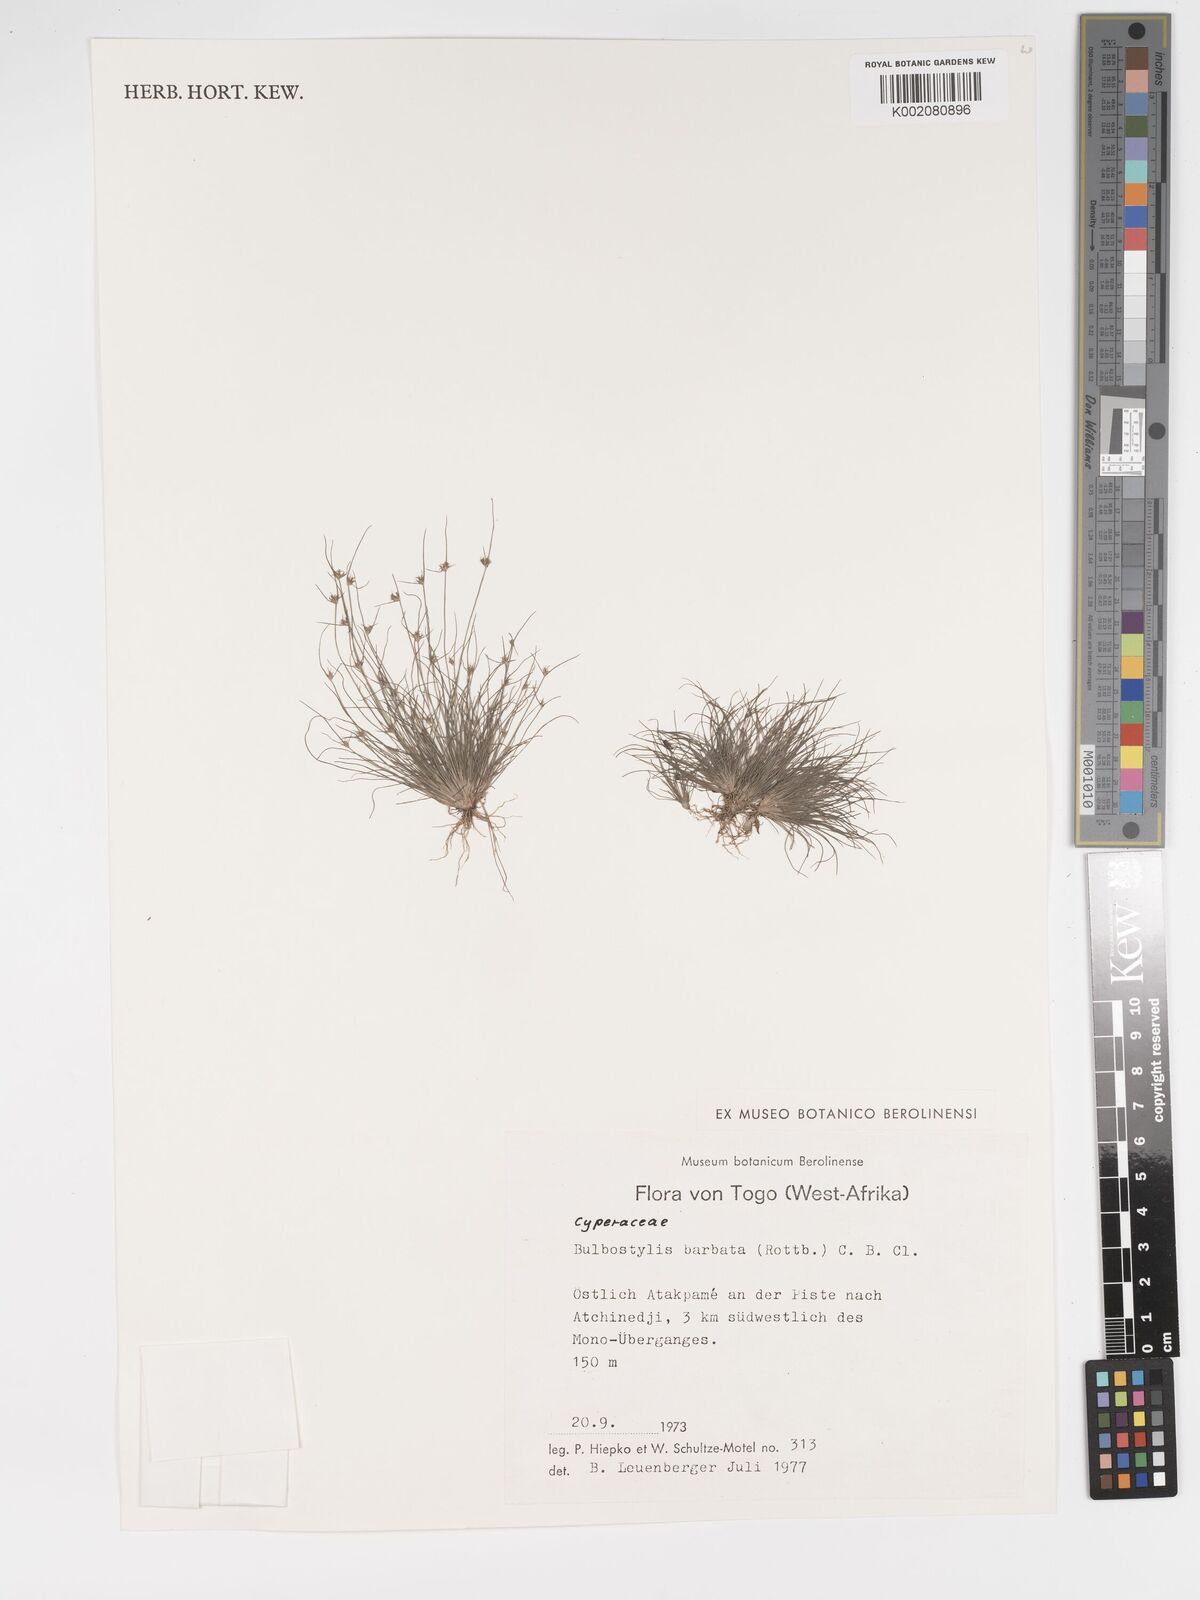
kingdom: Plantae
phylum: Tracheophyta
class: Liliopsida
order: Poales
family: Cyperaceae
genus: Bulbostylis
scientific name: Bulbostylis barbata
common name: Watergrass
